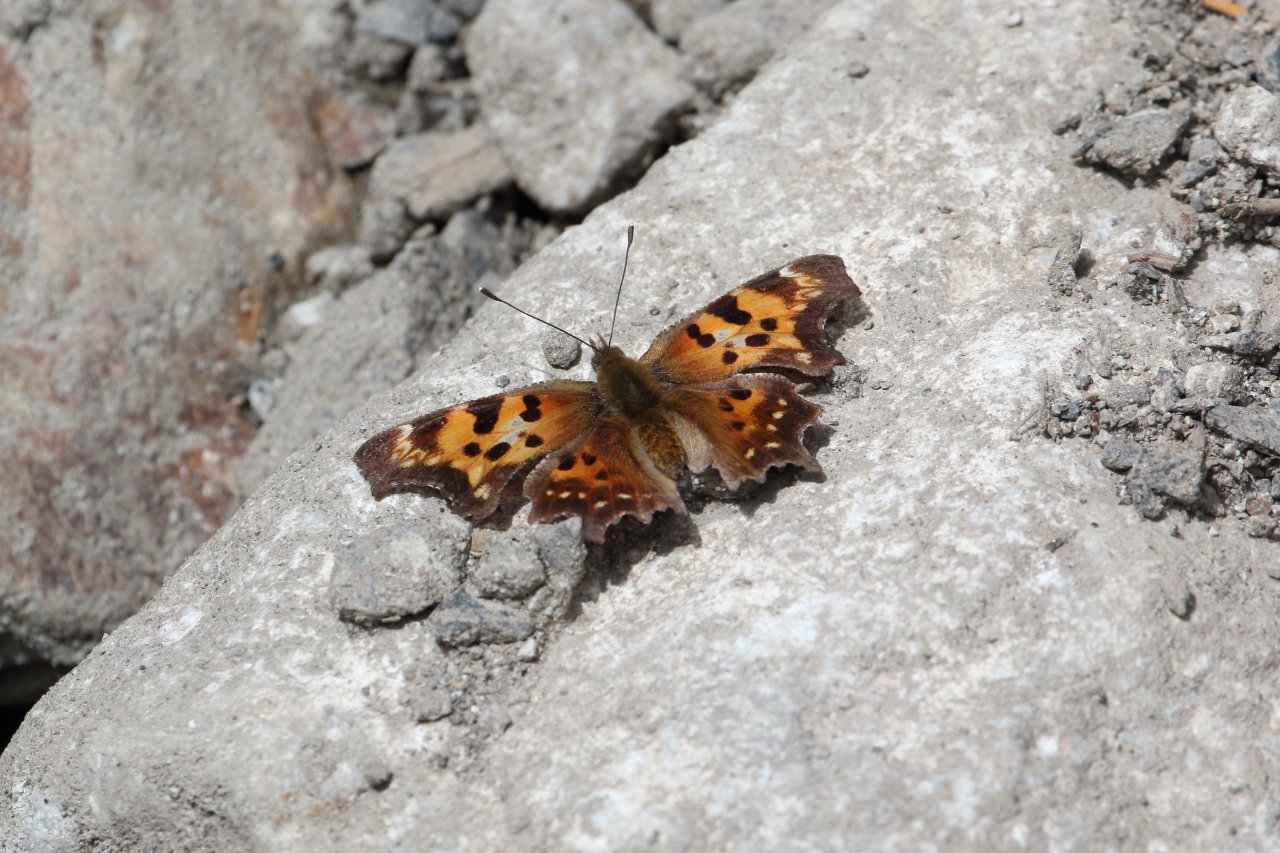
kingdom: Animalia
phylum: Arthropoda
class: Insecta
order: Lepidoptera
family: Nymphalidae
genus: Polygonia
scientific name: Polygonia faunus
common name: Green Comma
